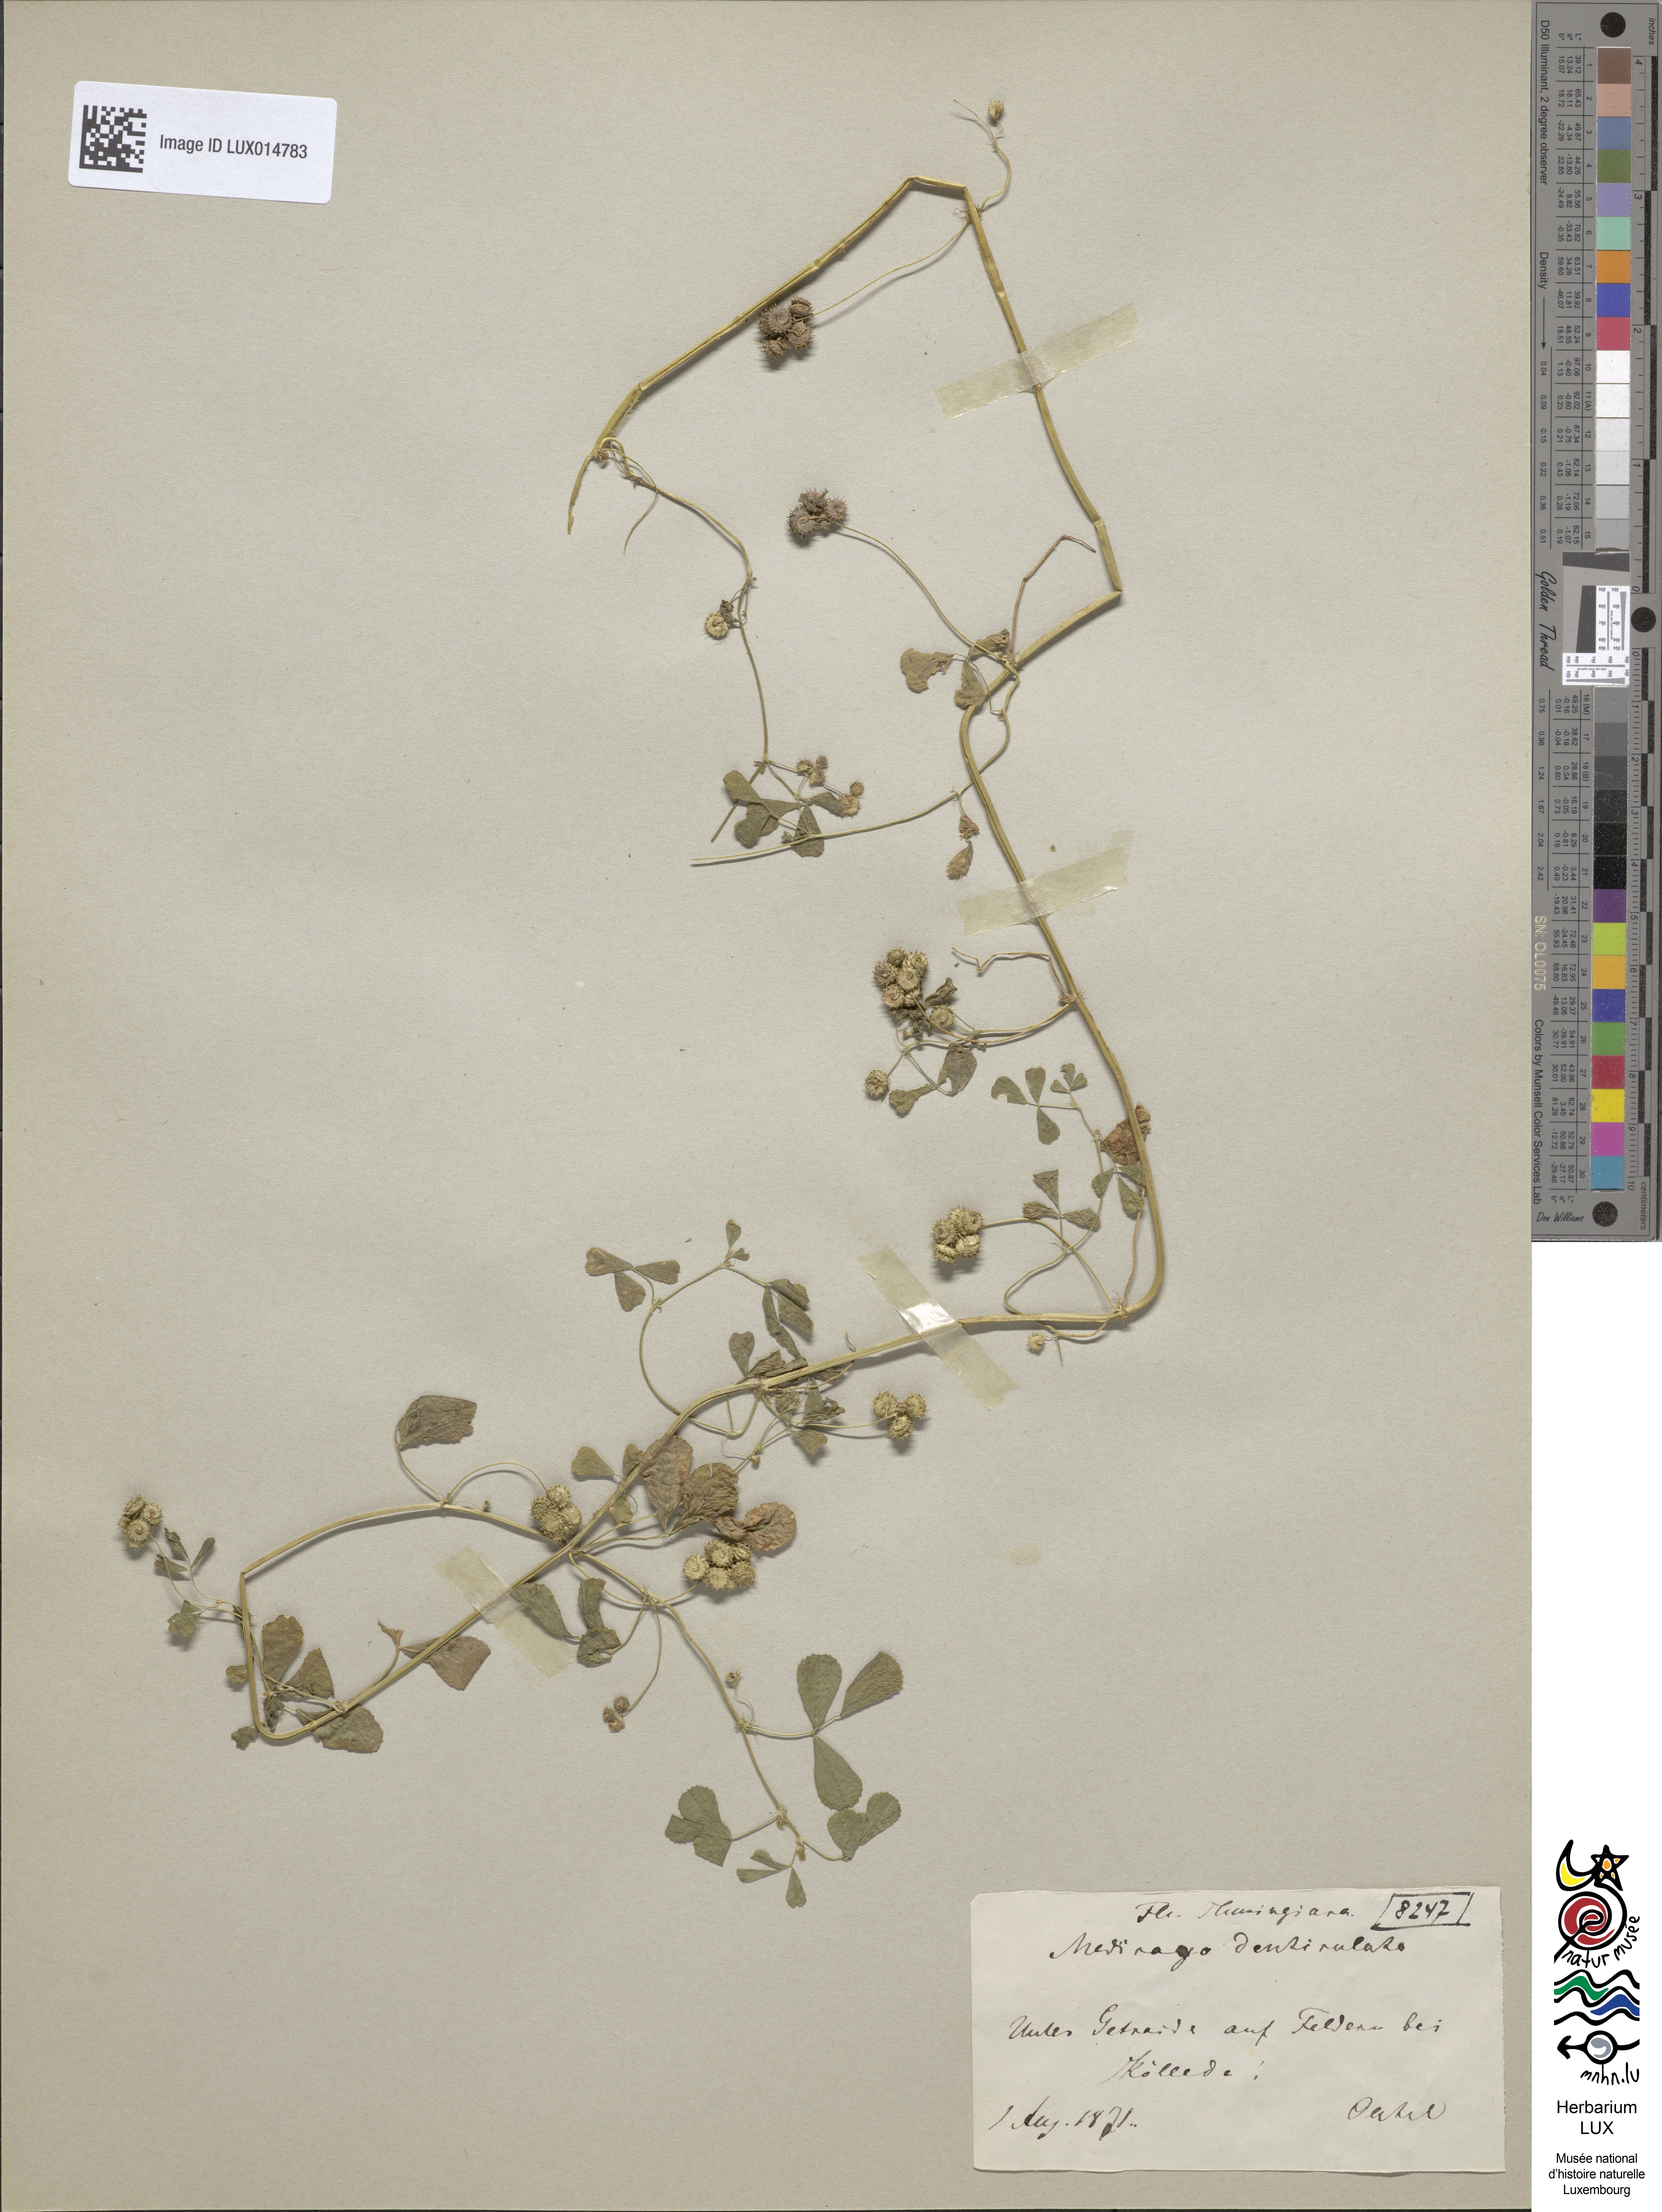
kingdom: Plantae
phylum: Tracheophyta
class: Magnoliopsida
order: Fabales
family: Fabaceae
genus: Medicago
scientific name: Medicago polymorpha
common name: Burclover
